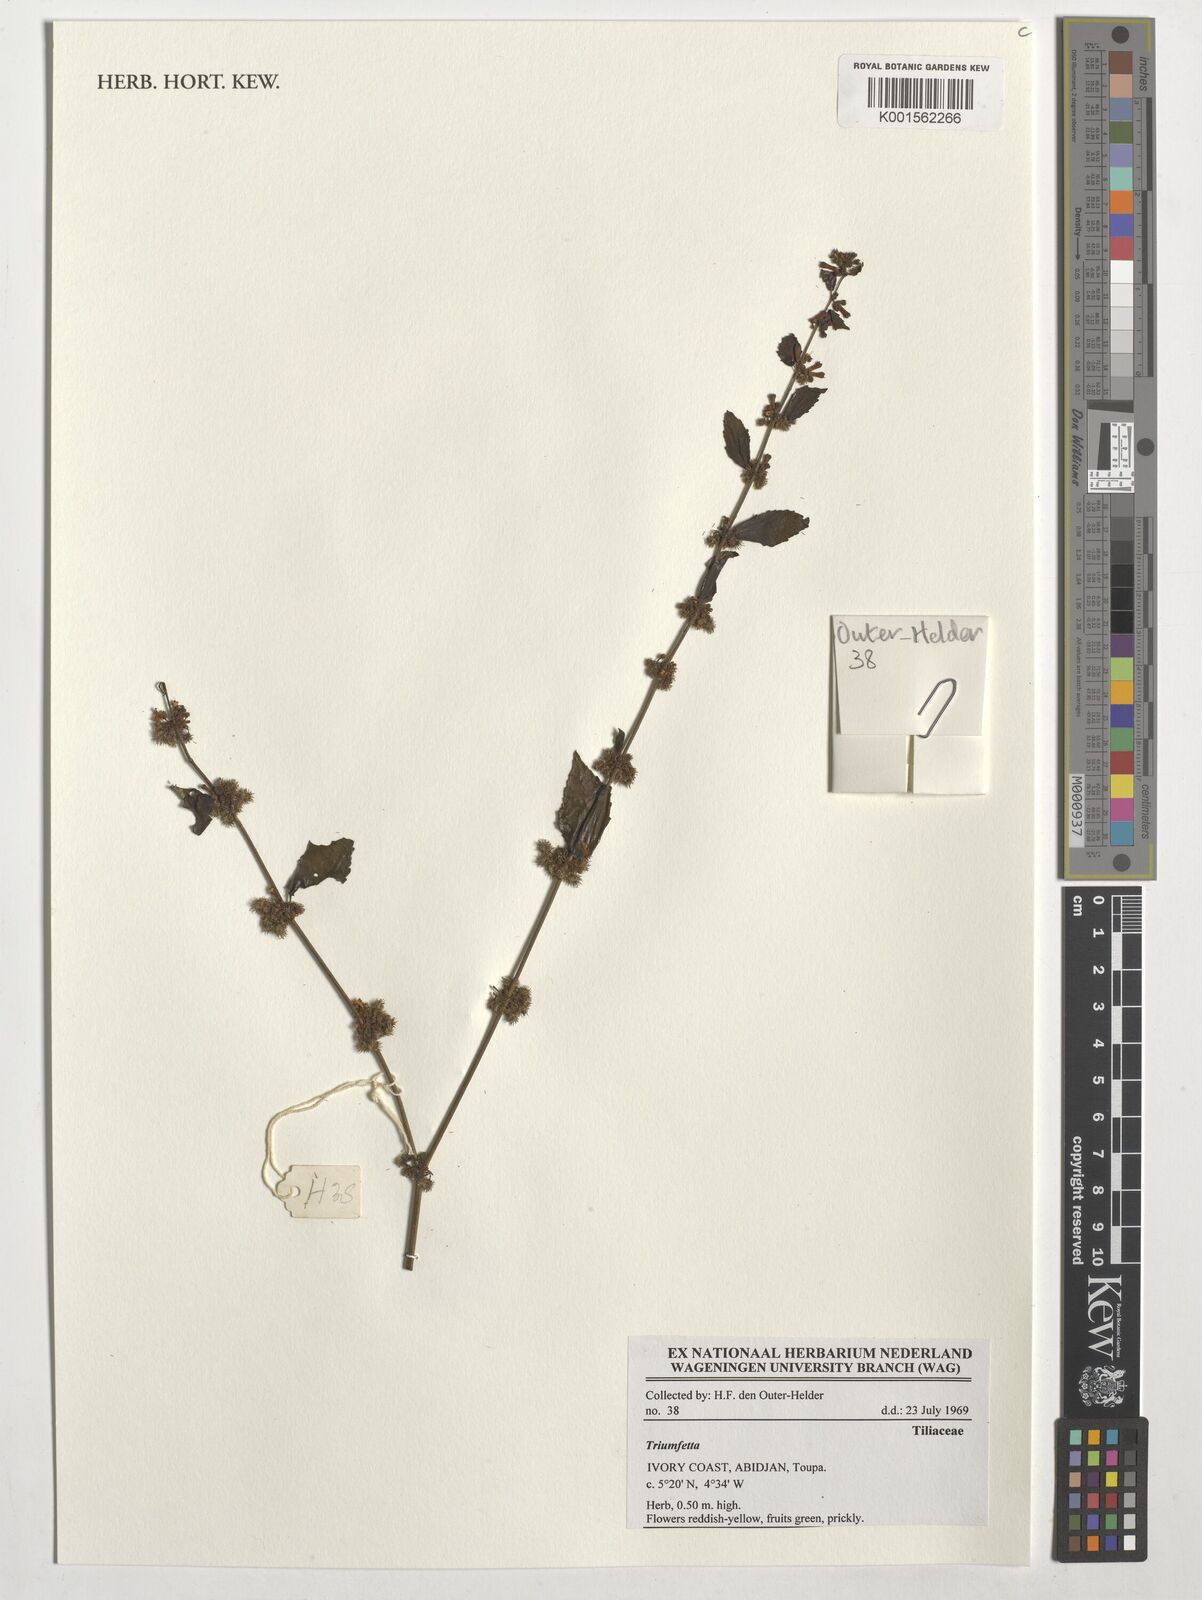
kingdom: Plantae
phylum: Tracheophyta
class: Magnoliopsida
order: Malvales
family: Malvaceae
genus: Triumfetta
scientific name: Triumfetta
